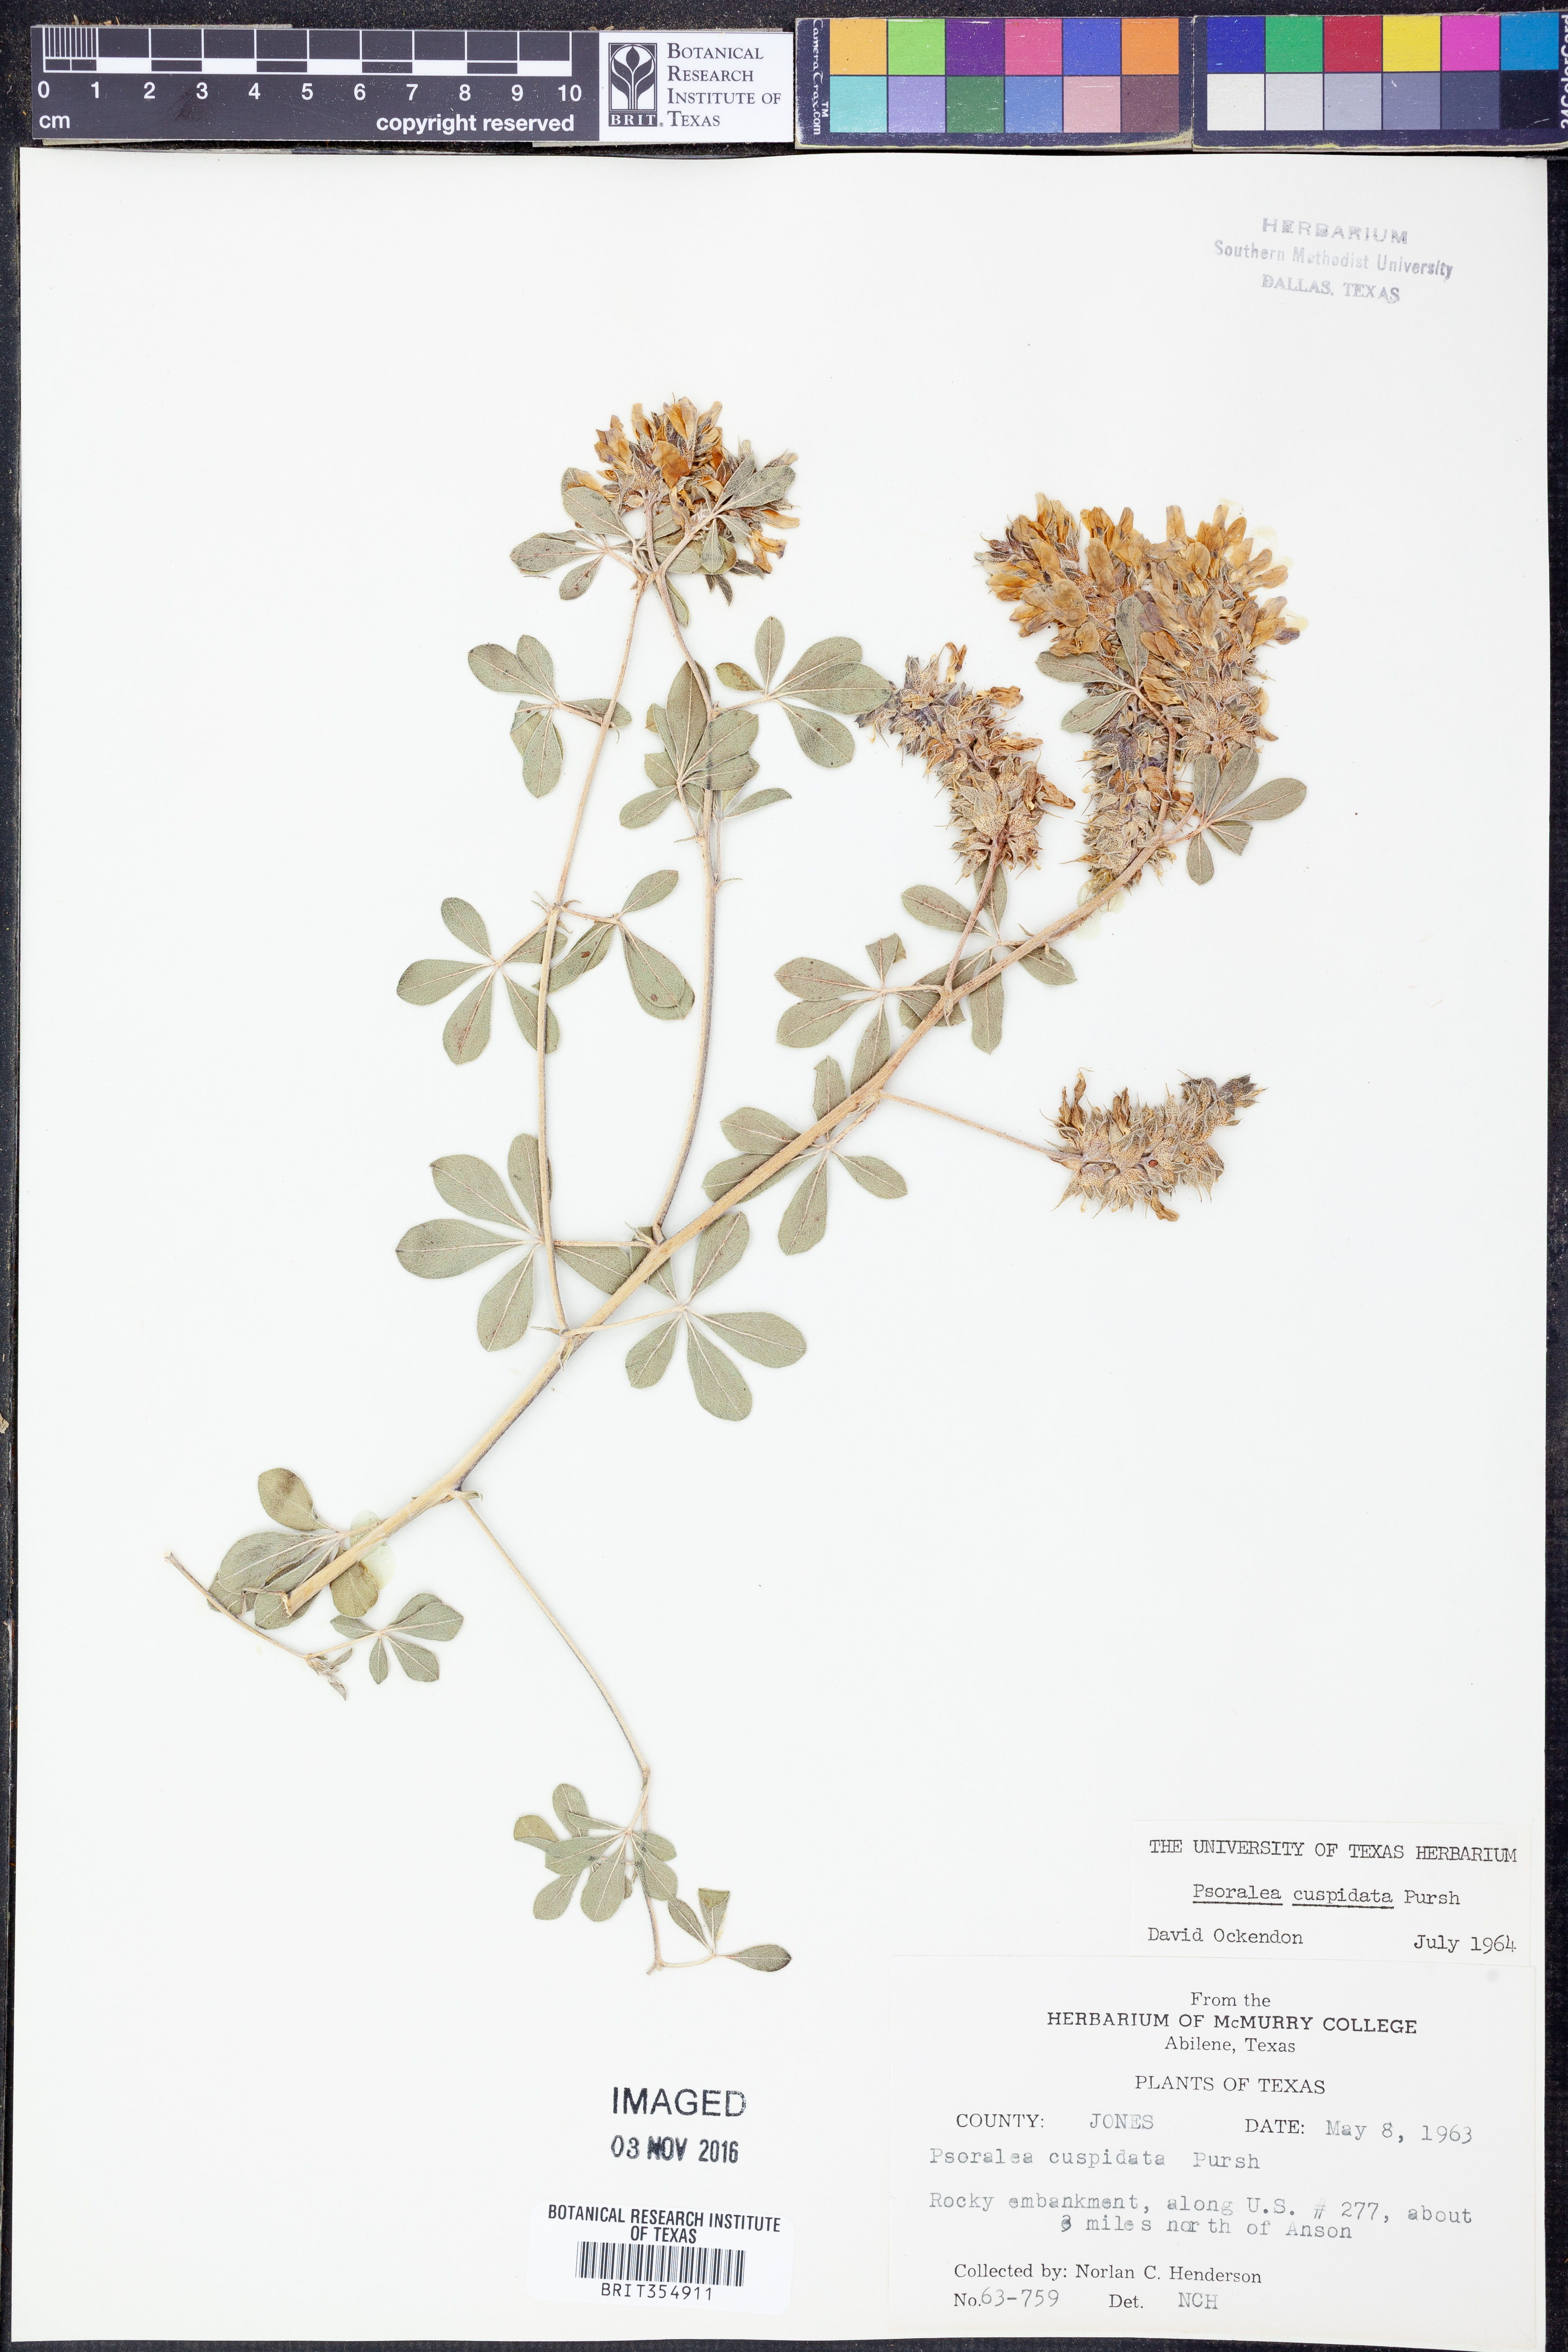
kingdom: Plantae
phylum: Tracheophyta
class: Magnoliopsida
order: Fabales
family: Fabaceae
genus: Pediomelum
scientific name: Pediomelum cuspidatum
